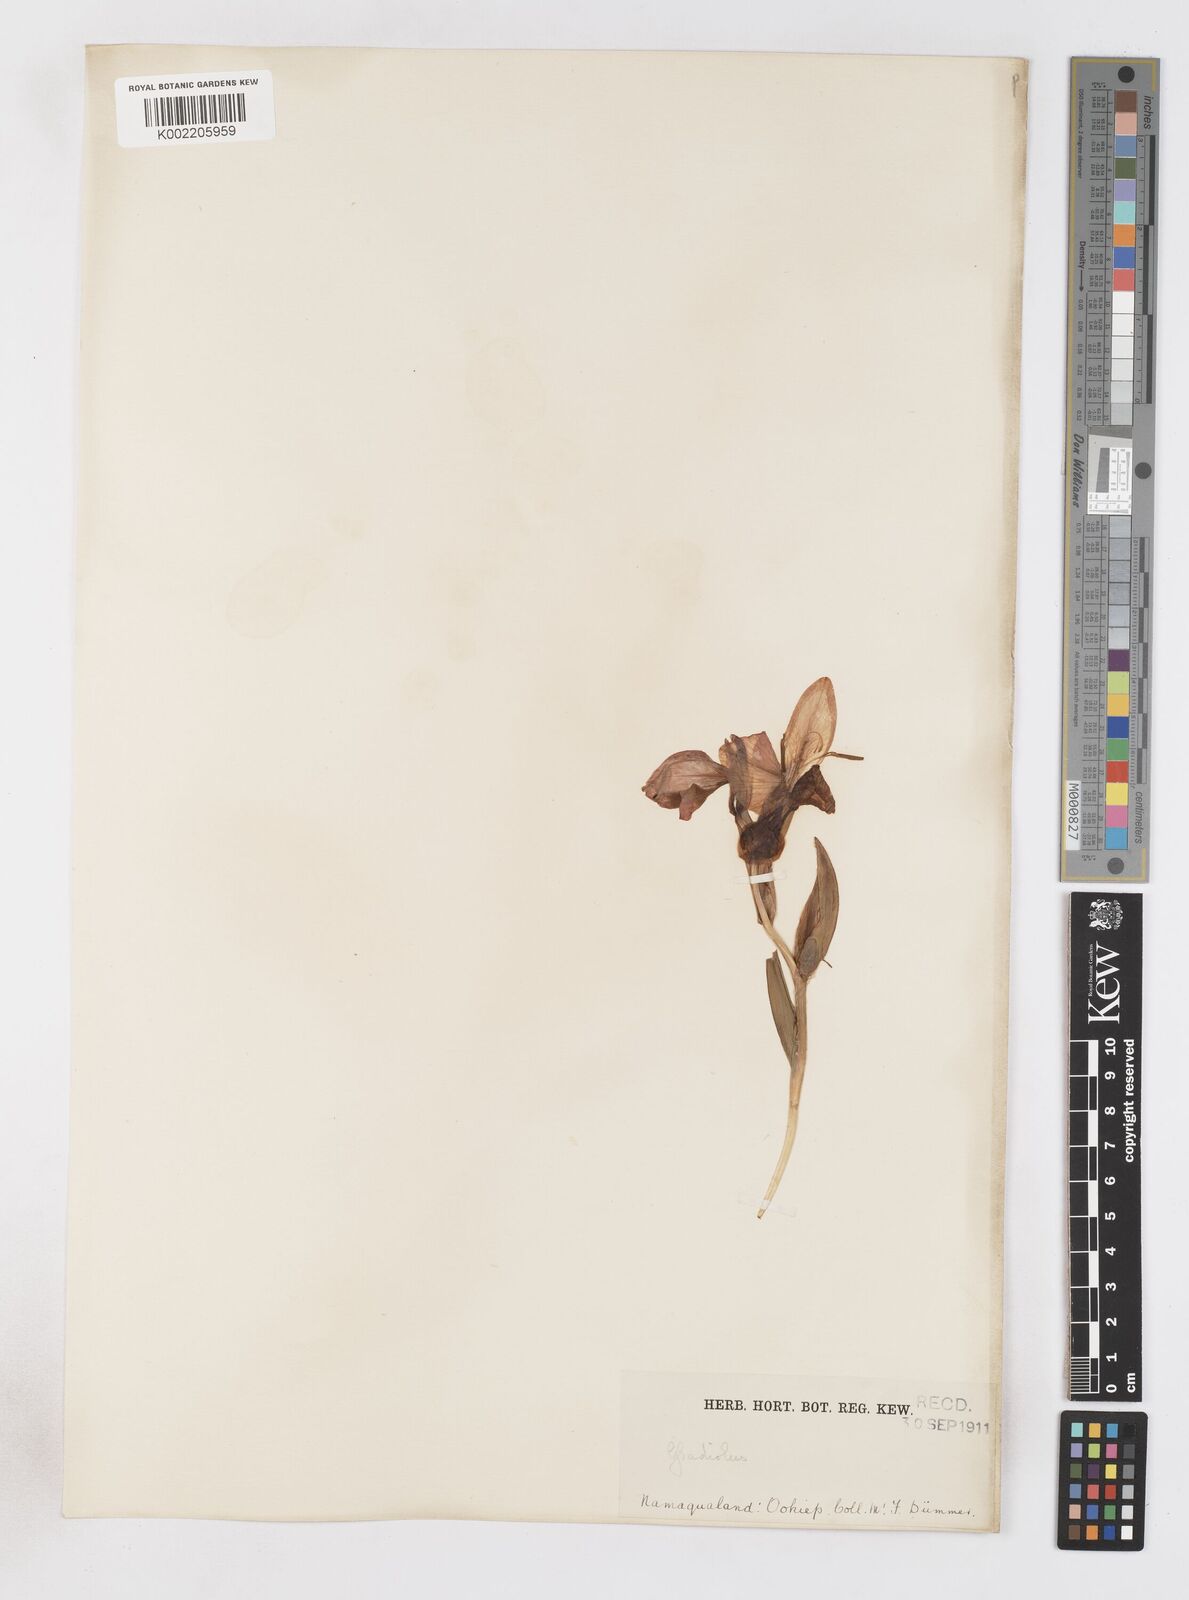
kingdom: Plantae
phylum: Tracheophyta
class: Liliopsida
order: Asparagales
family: Iridaceae
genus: Gladiolus
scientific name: Gladiolus equitans
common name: Large red kalkoentjie
